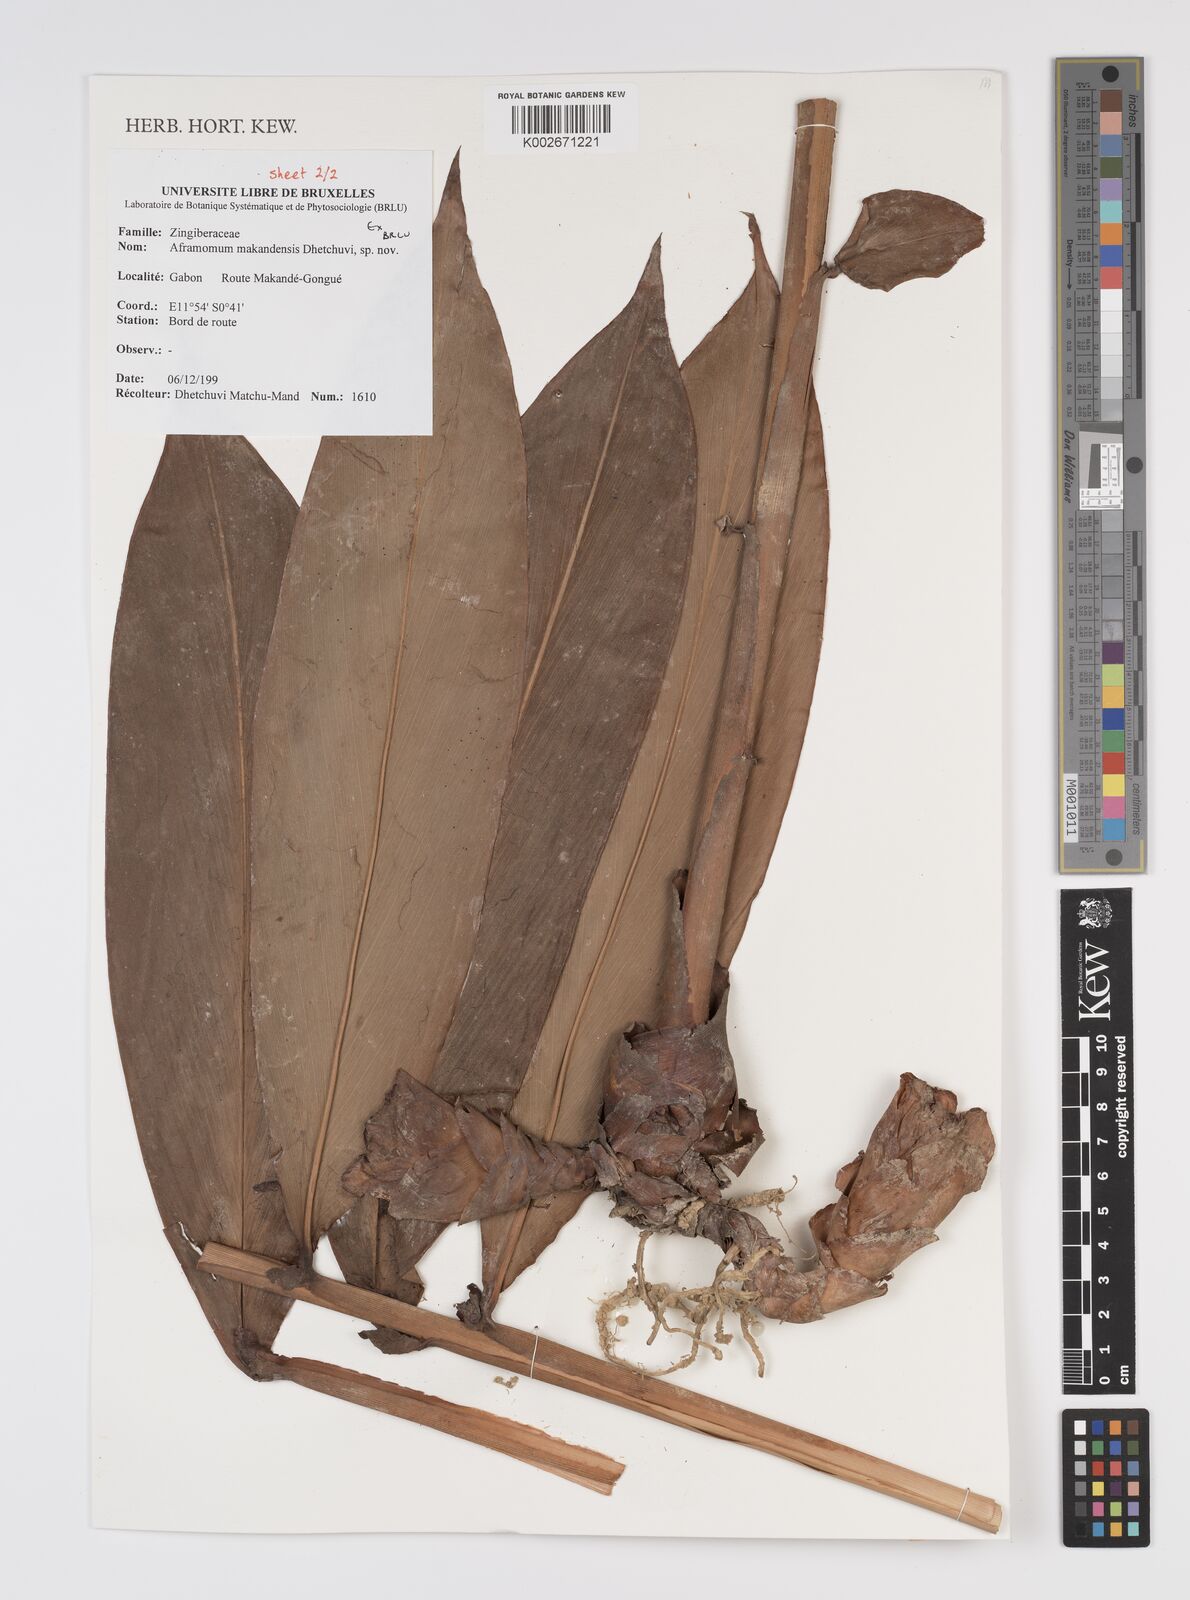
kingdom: Plantae
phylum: Tracheophyta
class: Liliopsida
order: Zingiberales
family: Zingiberaceae
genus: Aframomum
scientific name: Aframomum makandensis
